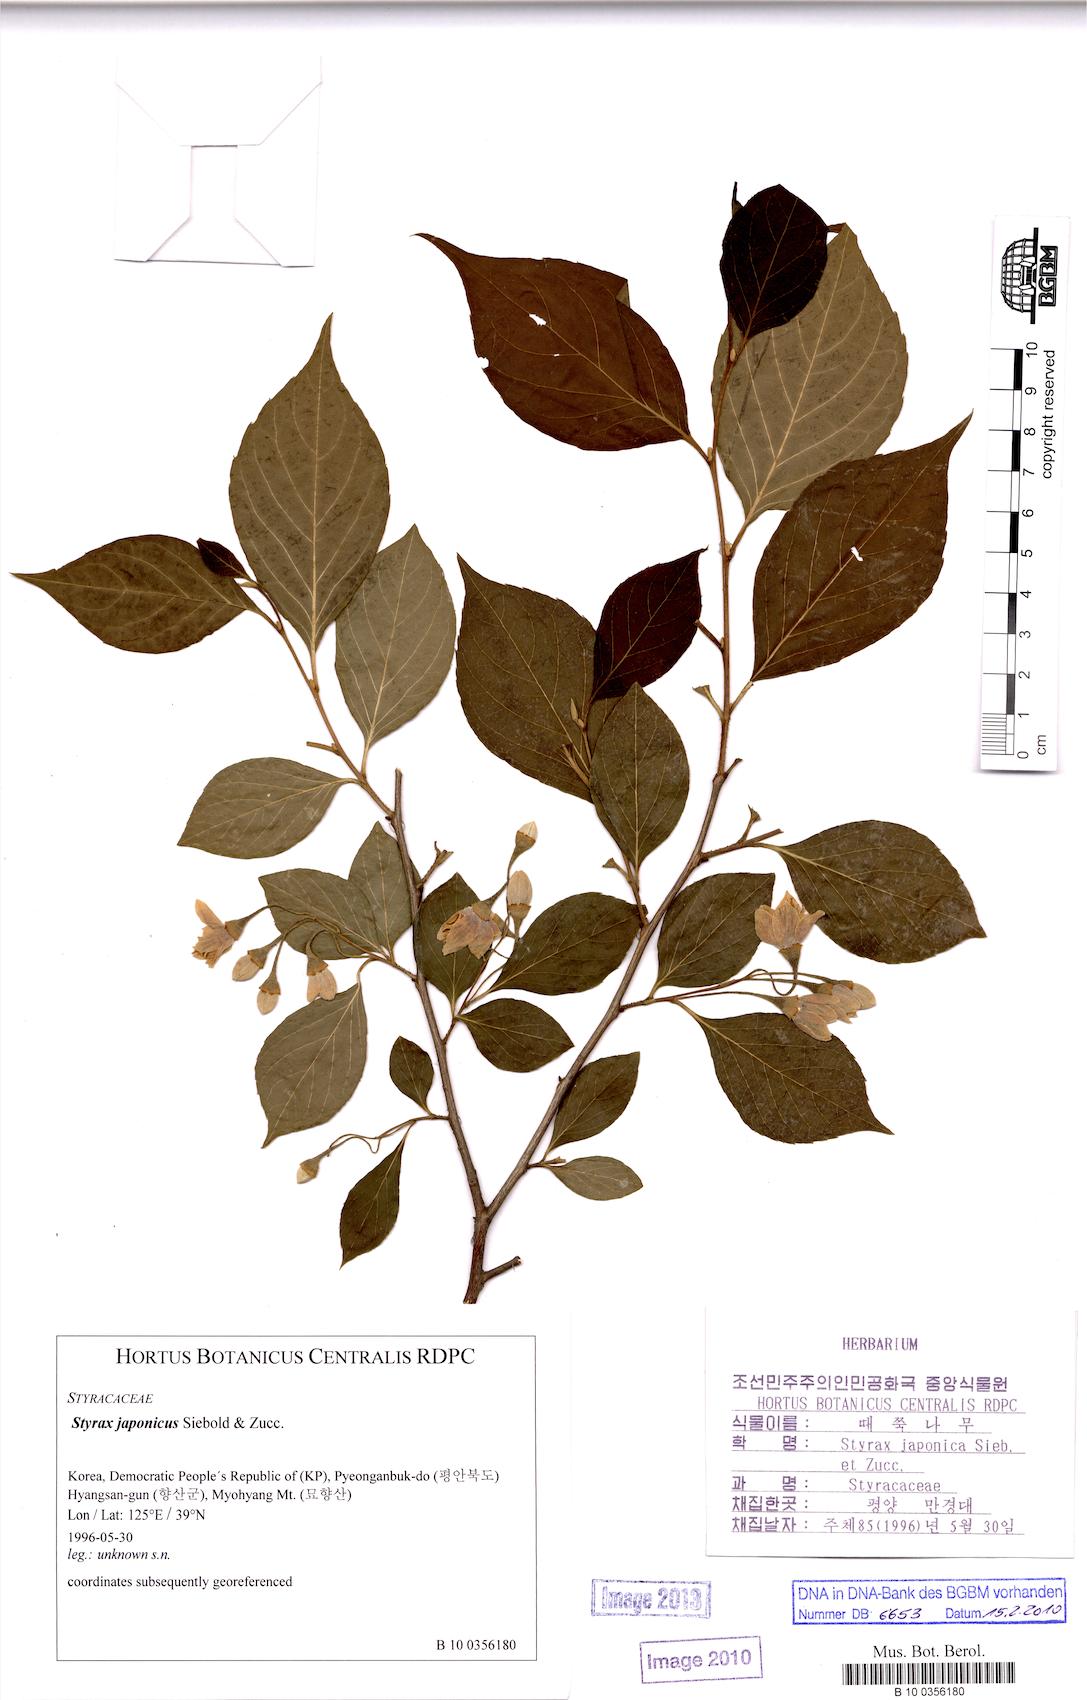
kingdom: Plantae
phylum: Tracheophyta
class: Magnoliopsida
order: Ericales
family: Styracaceae
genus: Styrax
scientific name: Styrax japonicus
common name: Japanese snowbell
